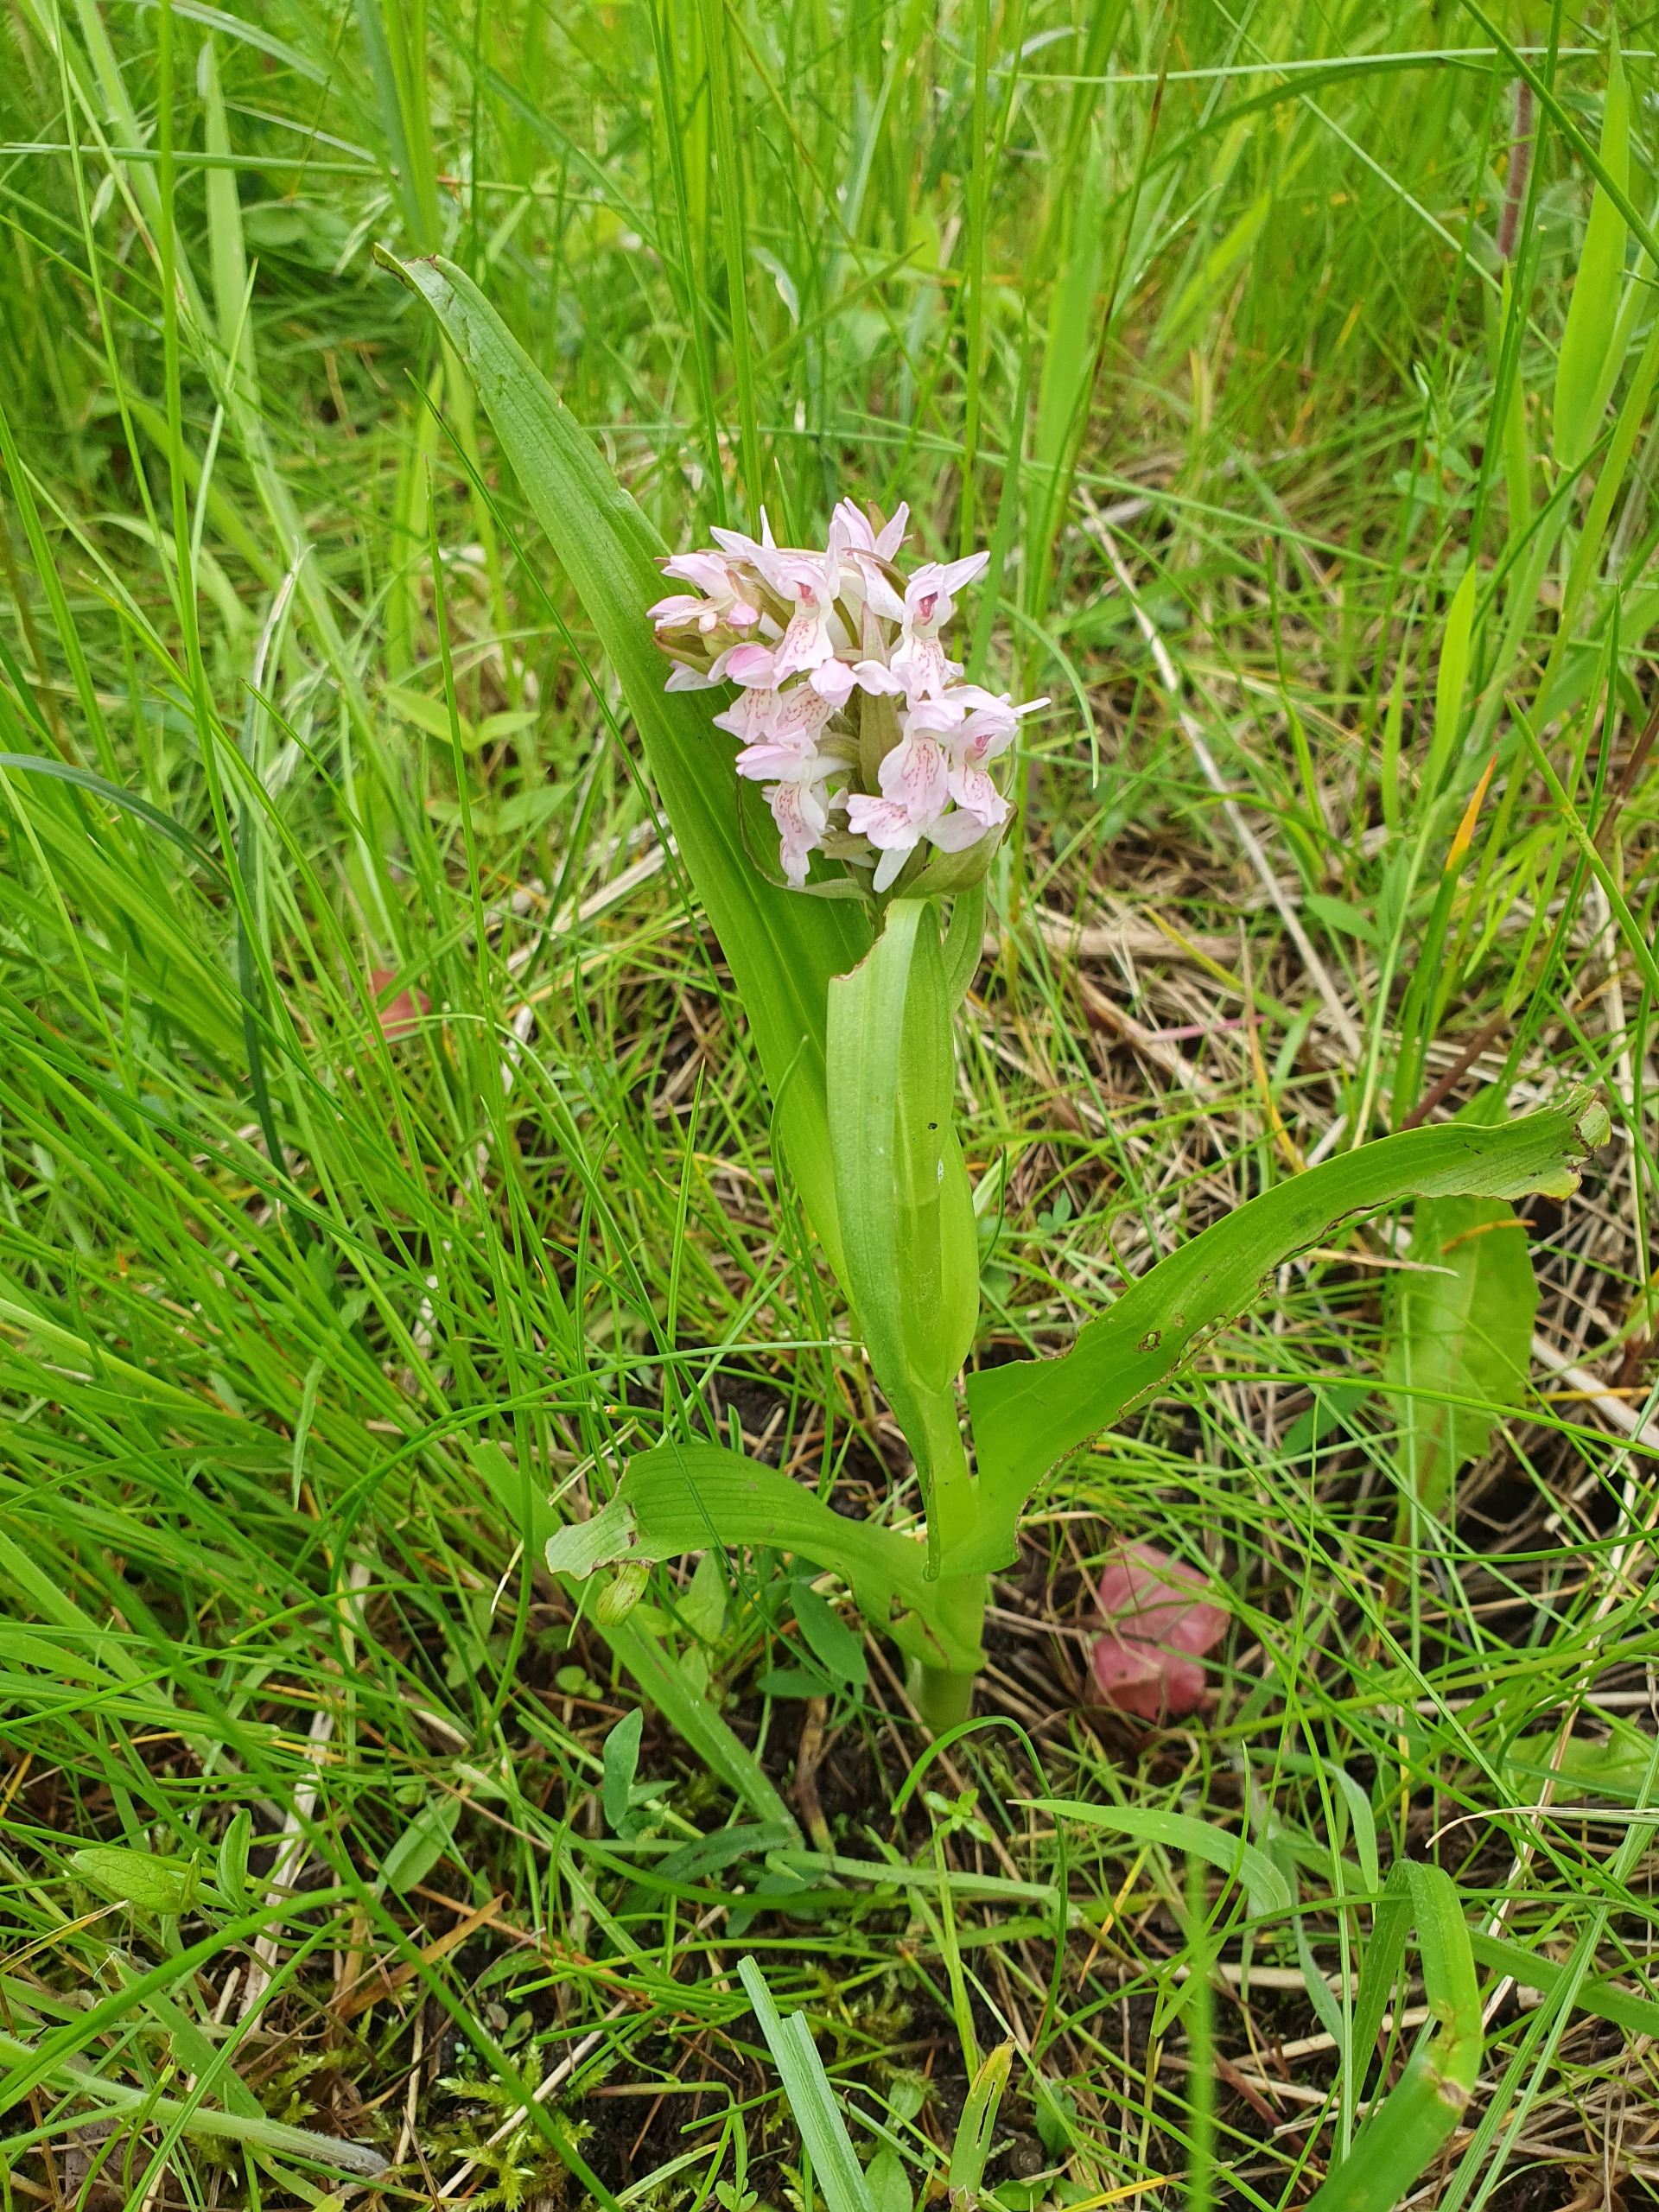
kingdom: Plantae
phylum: Tracheophyta
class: Liliopsida
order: Asparagales
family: Orchidaceae
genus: Dactylorhiza
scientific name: Dactylorhiza incarnata
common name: Kødfarvet gøgeurt
